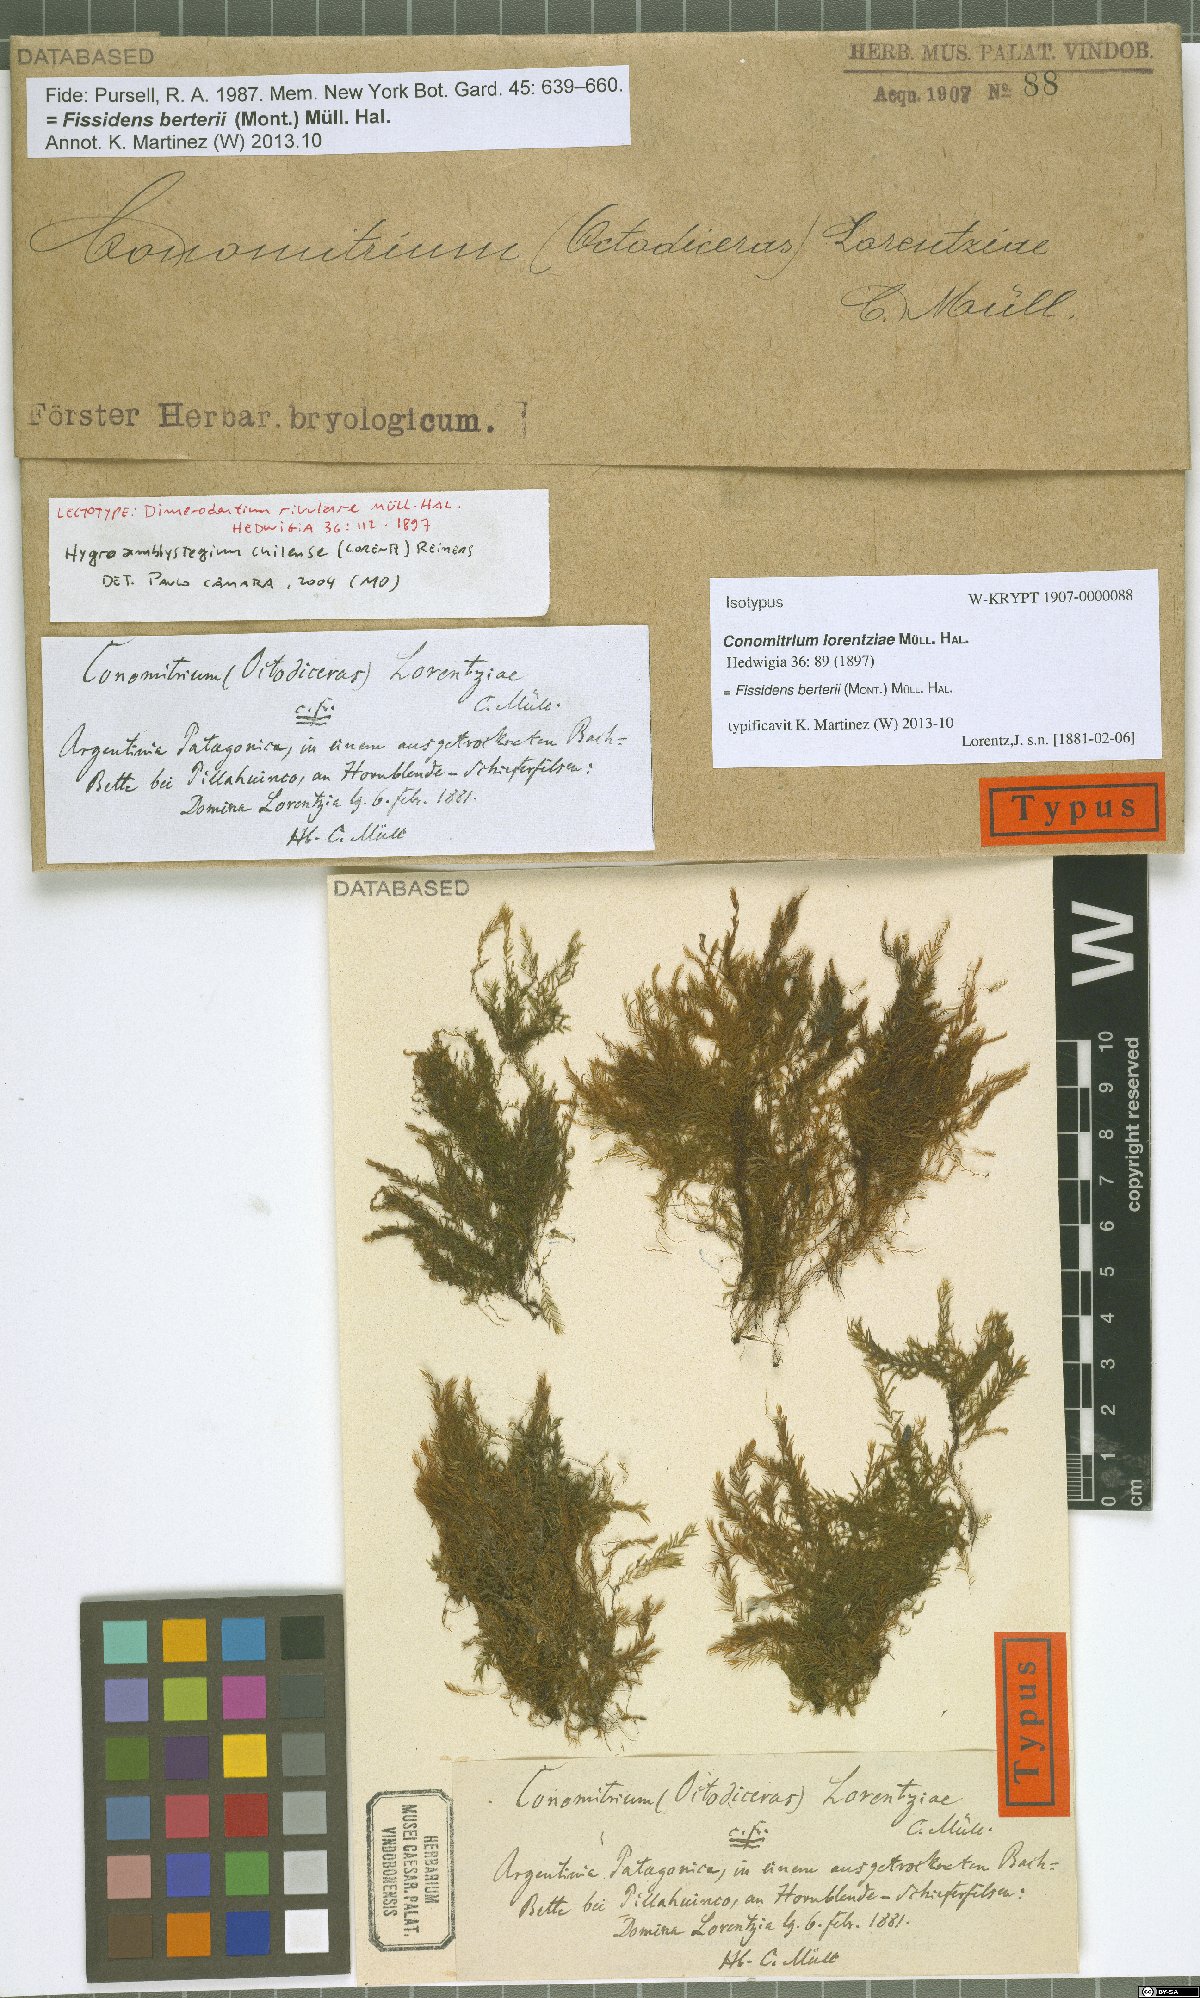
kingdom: Plantae
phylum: Bryophyta
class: Bryopsida
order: Dicranales
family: Fissidentaceae
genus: Fissidens
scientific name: Fissidens berteroi
